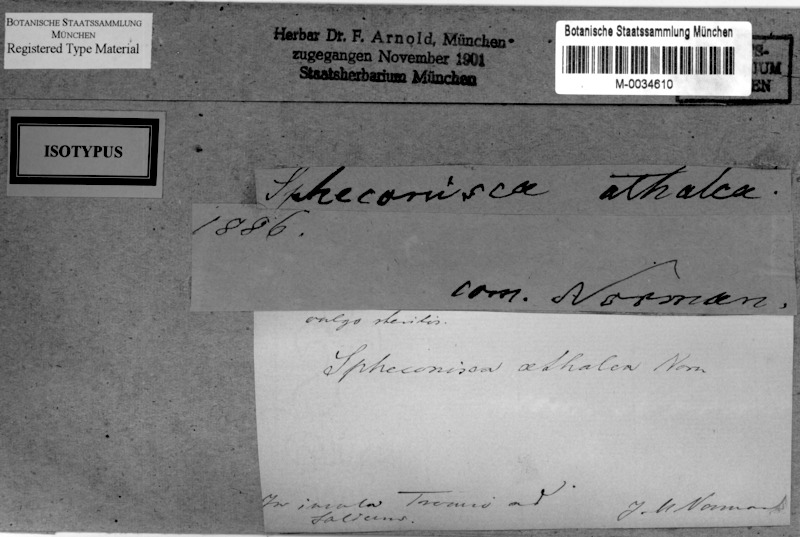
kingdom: Fungi
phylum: Ascomycota
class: Eurotiomycetes
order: Verrucariales
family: Verrucariaceae
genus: Moriola
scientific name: Moriola aethalea
